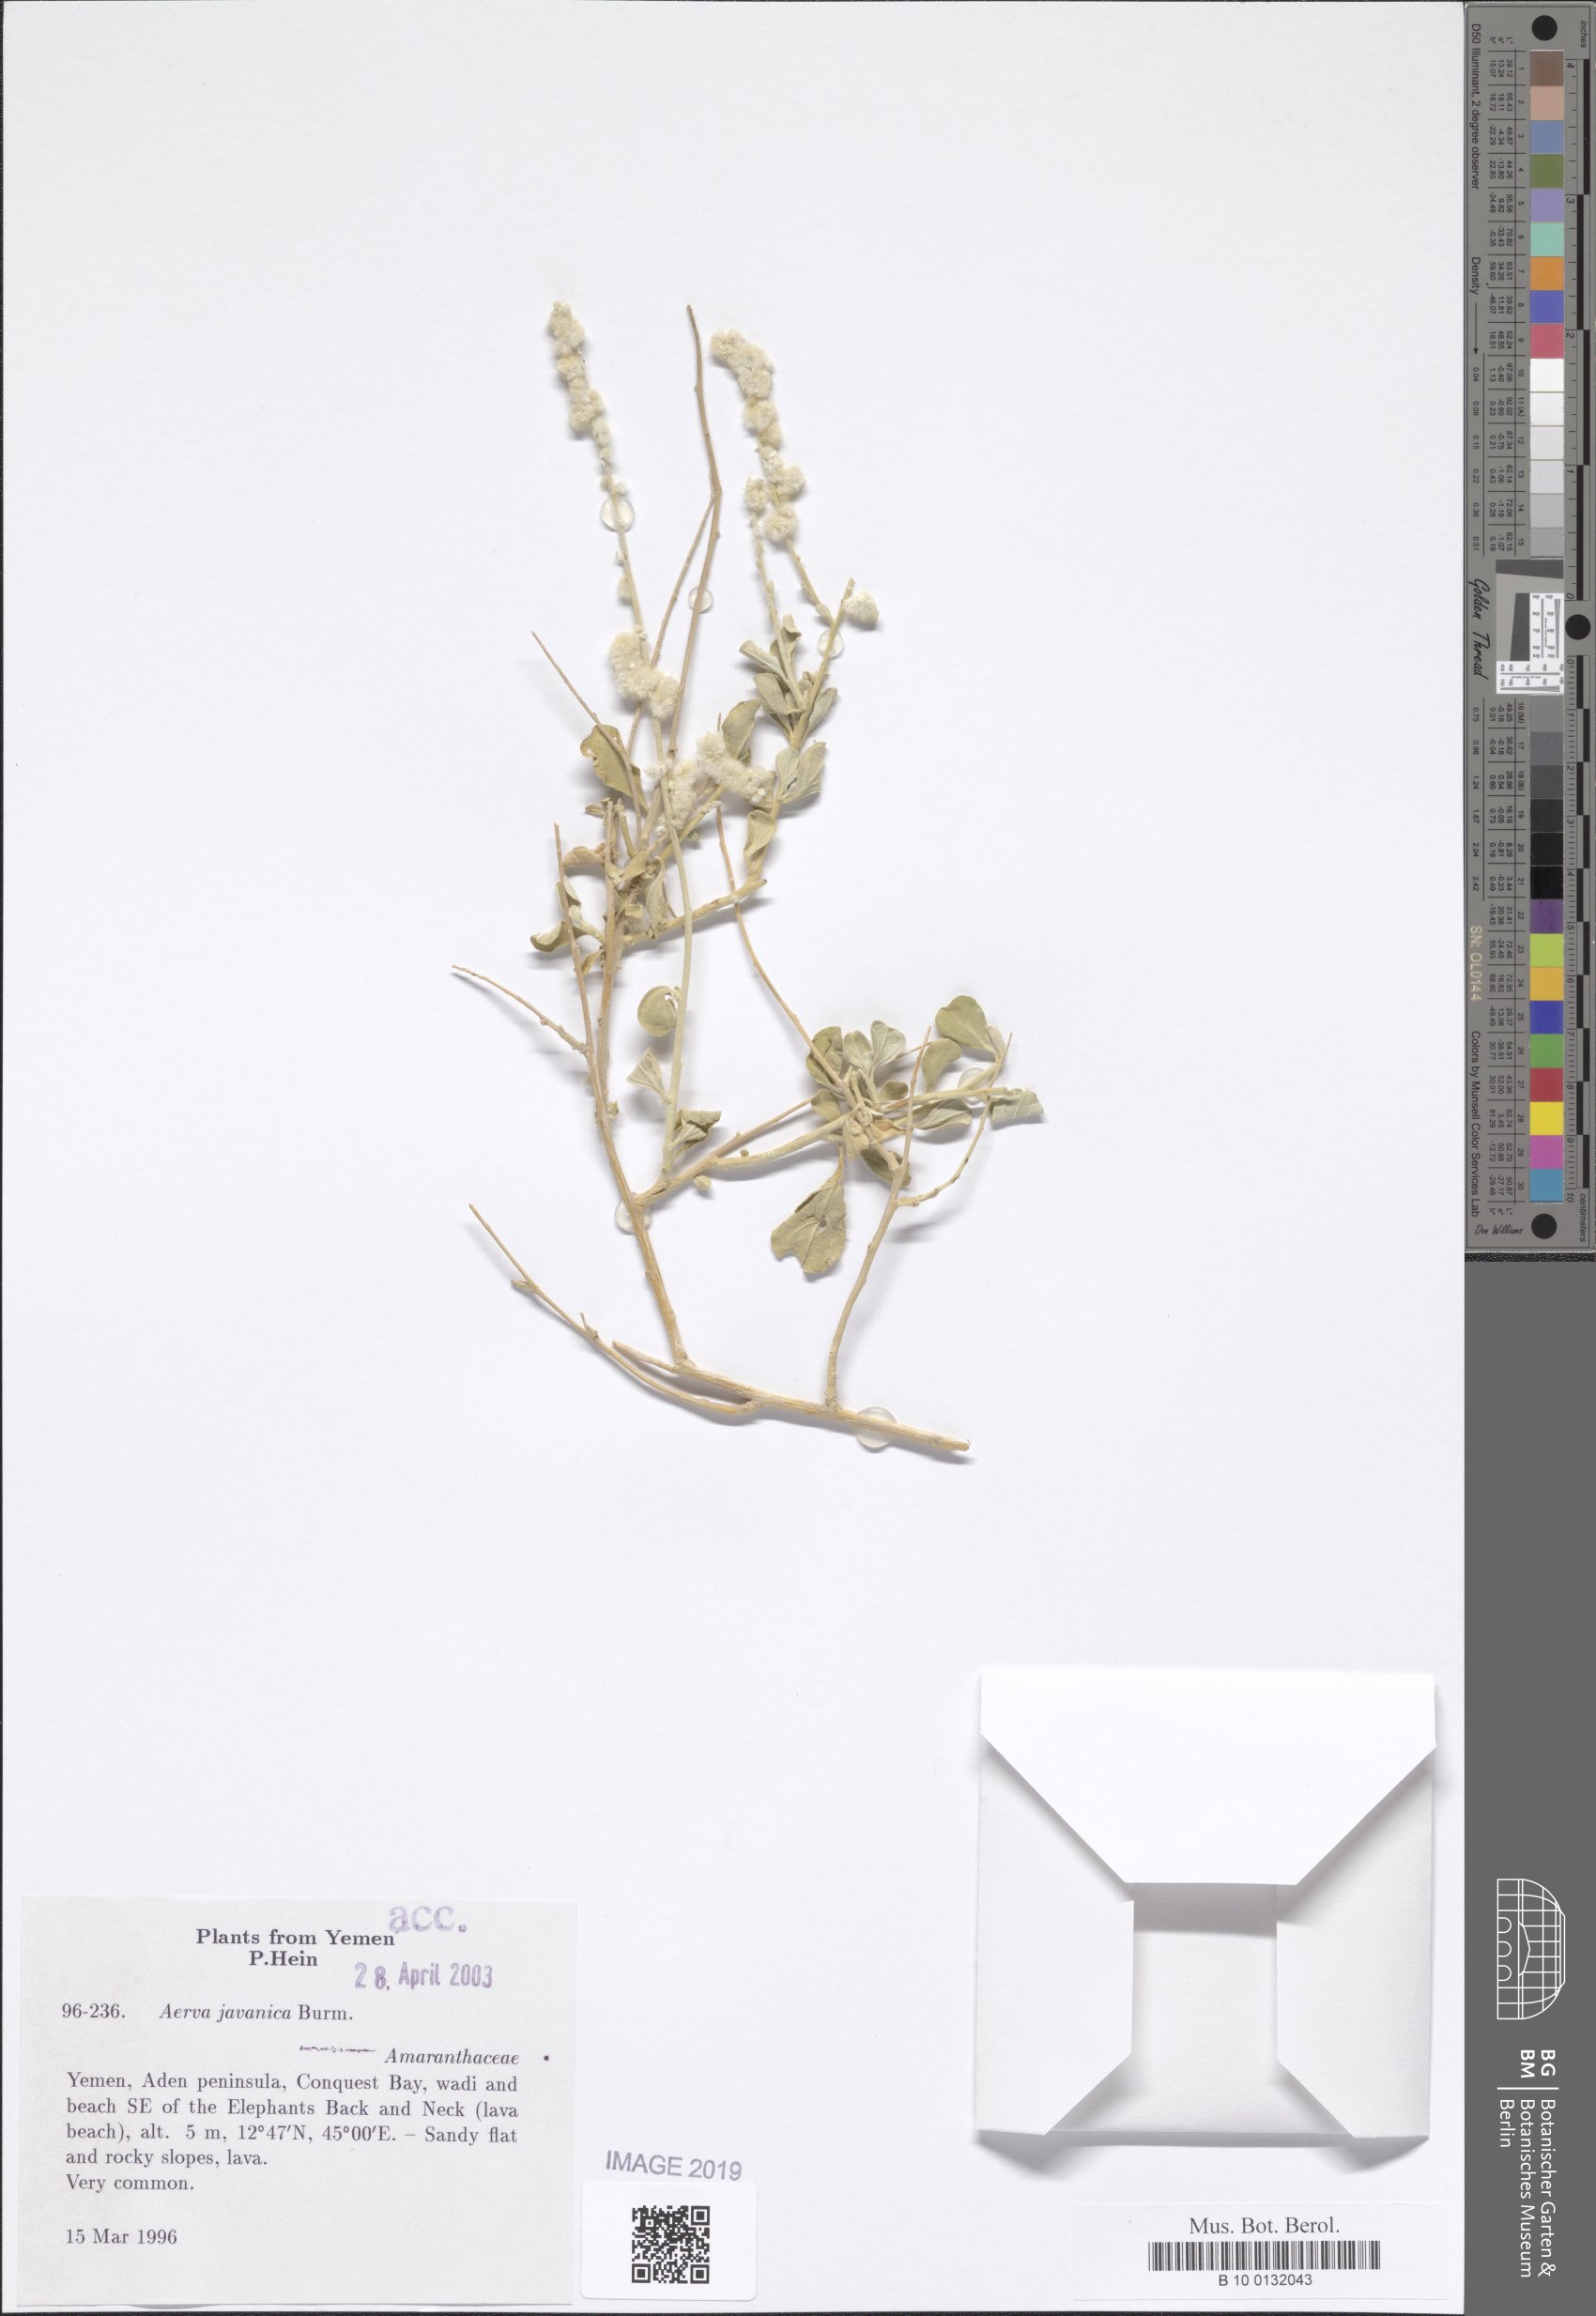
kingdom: Plantae
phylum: Tracheophyta
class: Magnoliopsida
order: Caryophyllales
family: Amaranthaceae
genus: Aerva
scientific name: Aerva javanica
